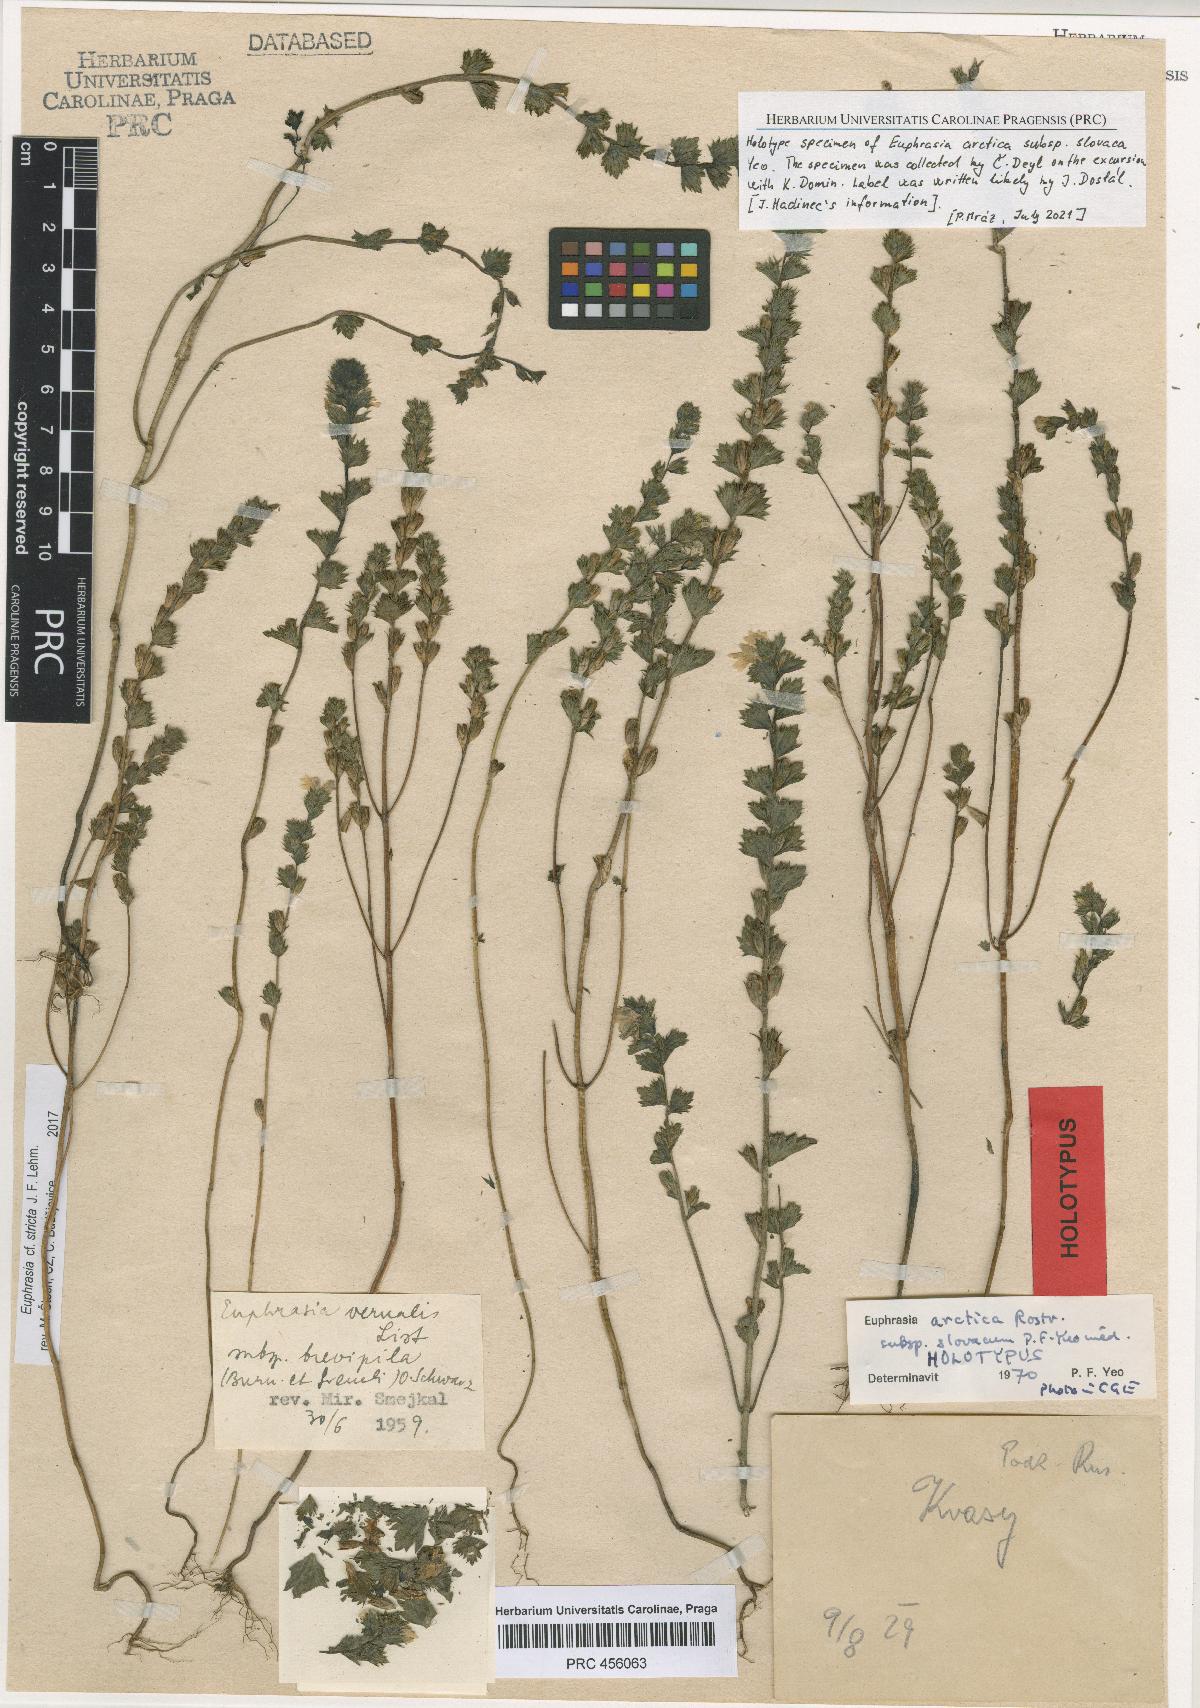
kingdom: Plantae
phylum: Tracheophyta
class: Magnoliopsida
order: Lamiales
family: Orobanchaceae
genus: Euphrasia
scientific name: Euphrasia vernalis
